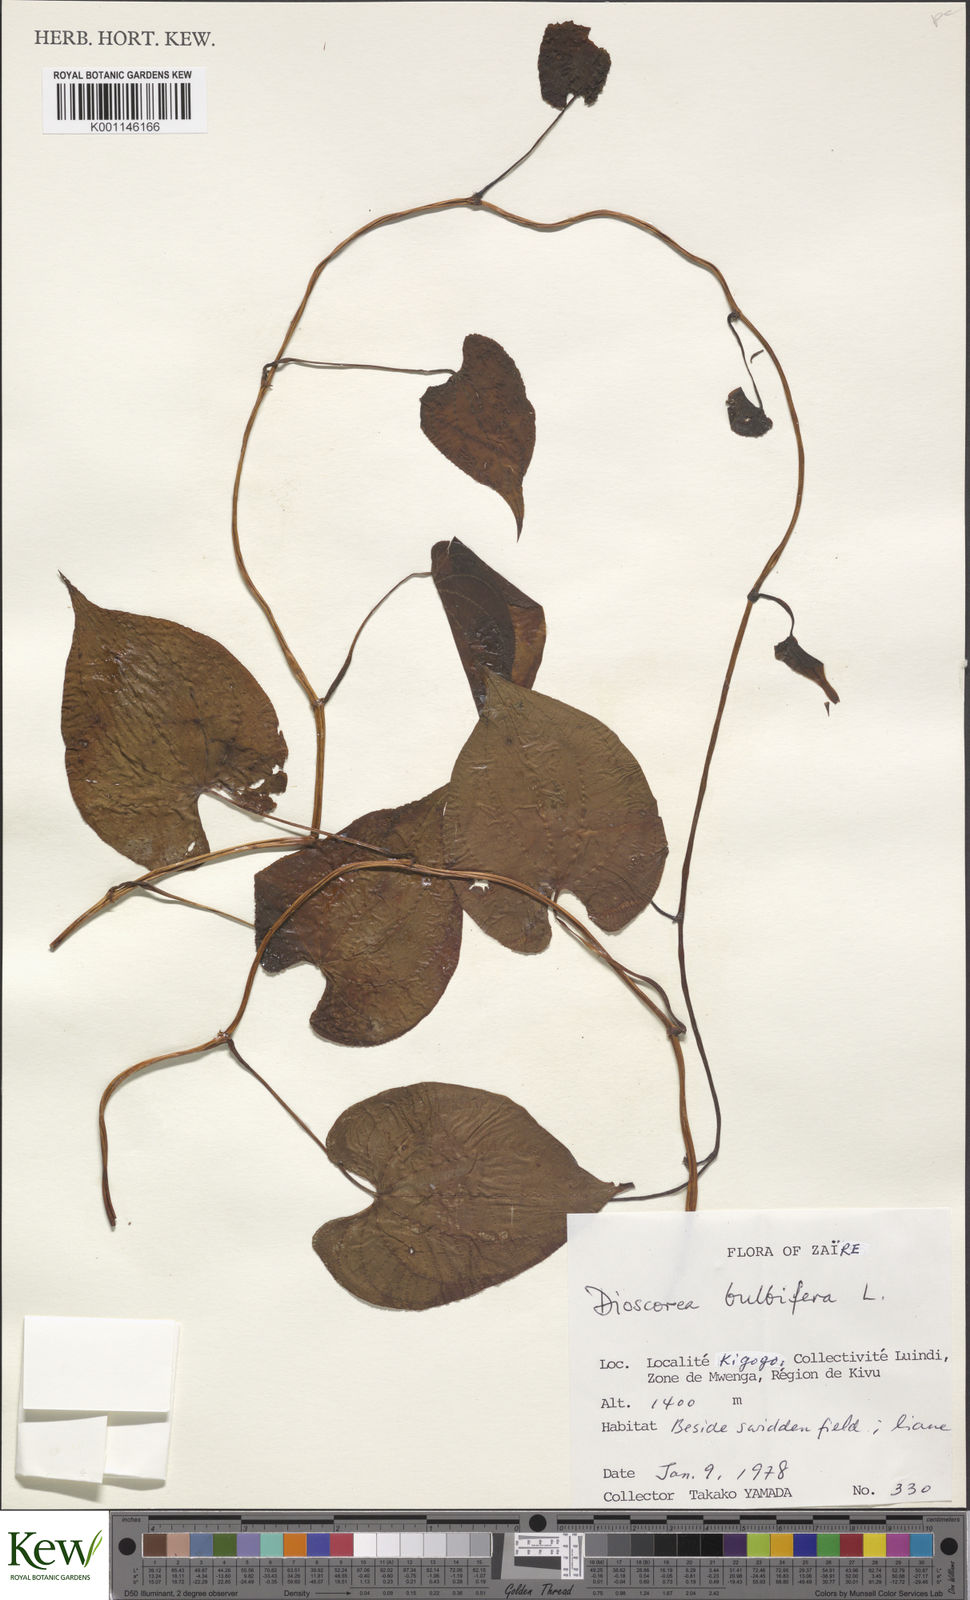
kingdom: Plantae
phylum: Tracheophyta
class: Liliopsida
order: Dioscoreales
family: Dioscoreaceae
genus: Dioscorea
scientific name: Dioscorea bulbifera
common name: Air yam
